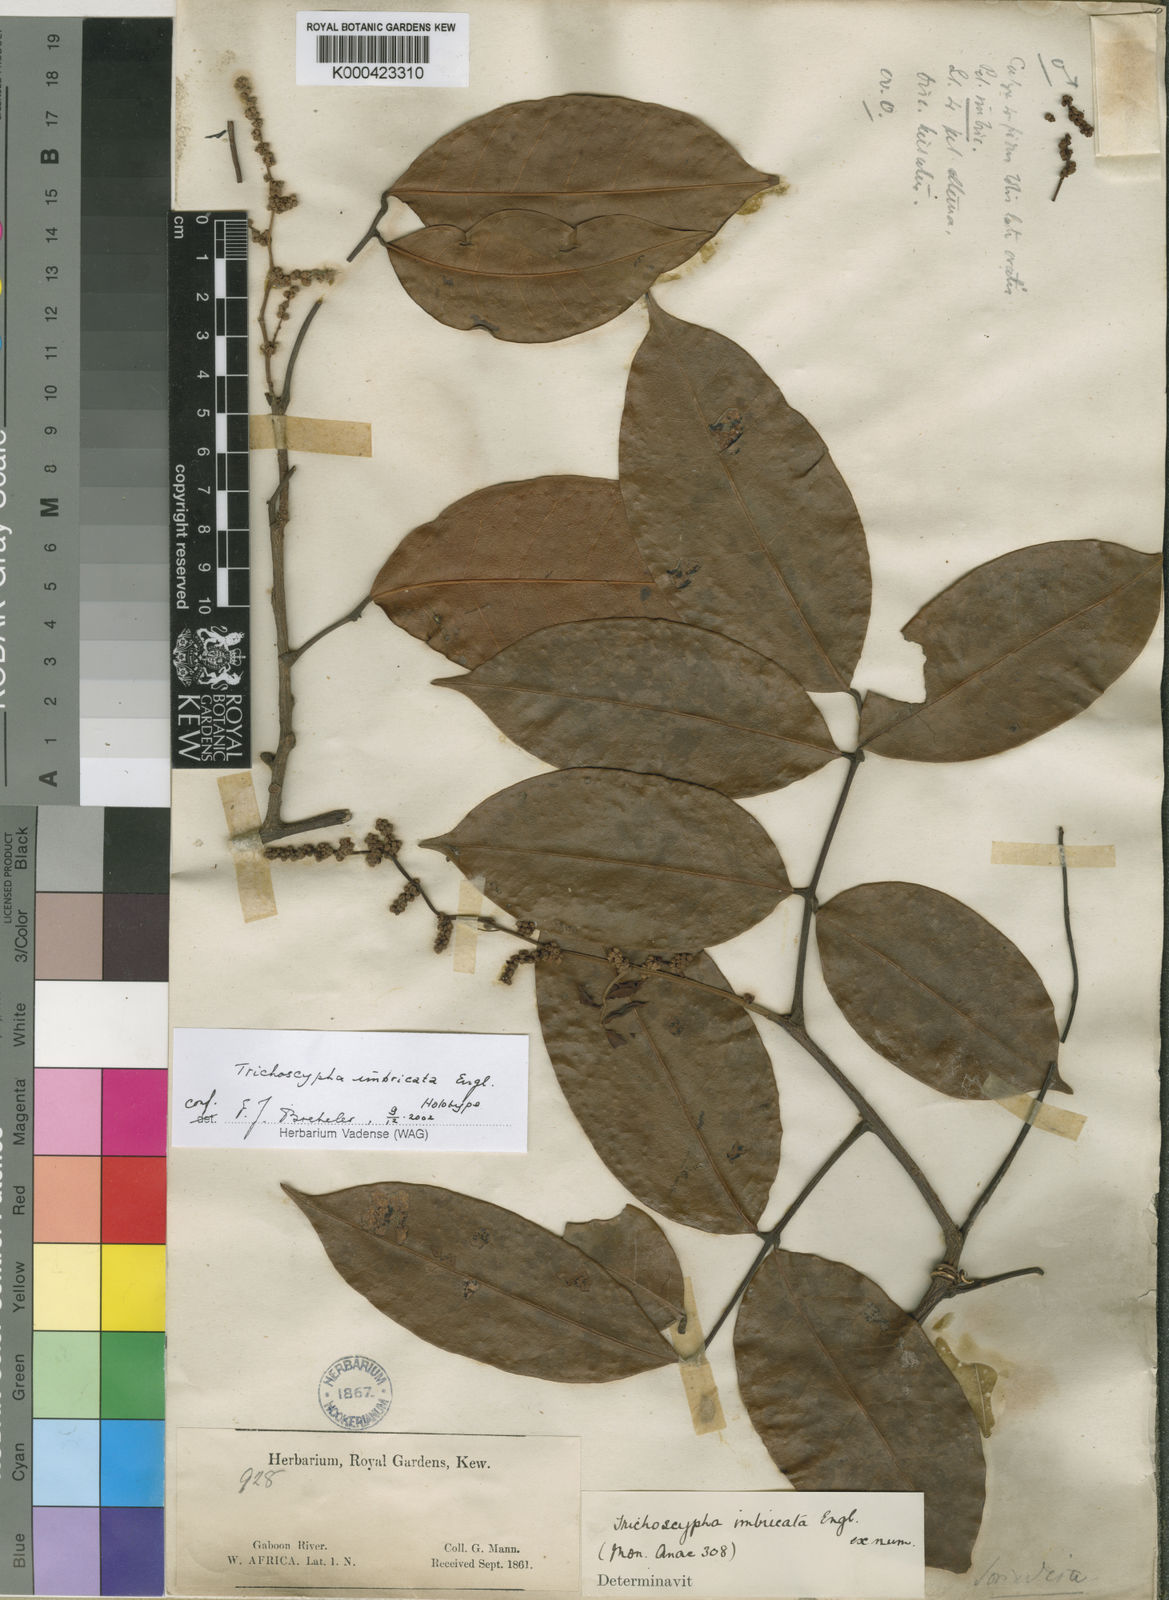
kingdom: Plantae
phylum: Tracheophyta
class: Magnoliopsida
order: Sapindales
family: Anacardiaceae
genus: Trichoscypha
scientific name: Trichoscypha imbricata
